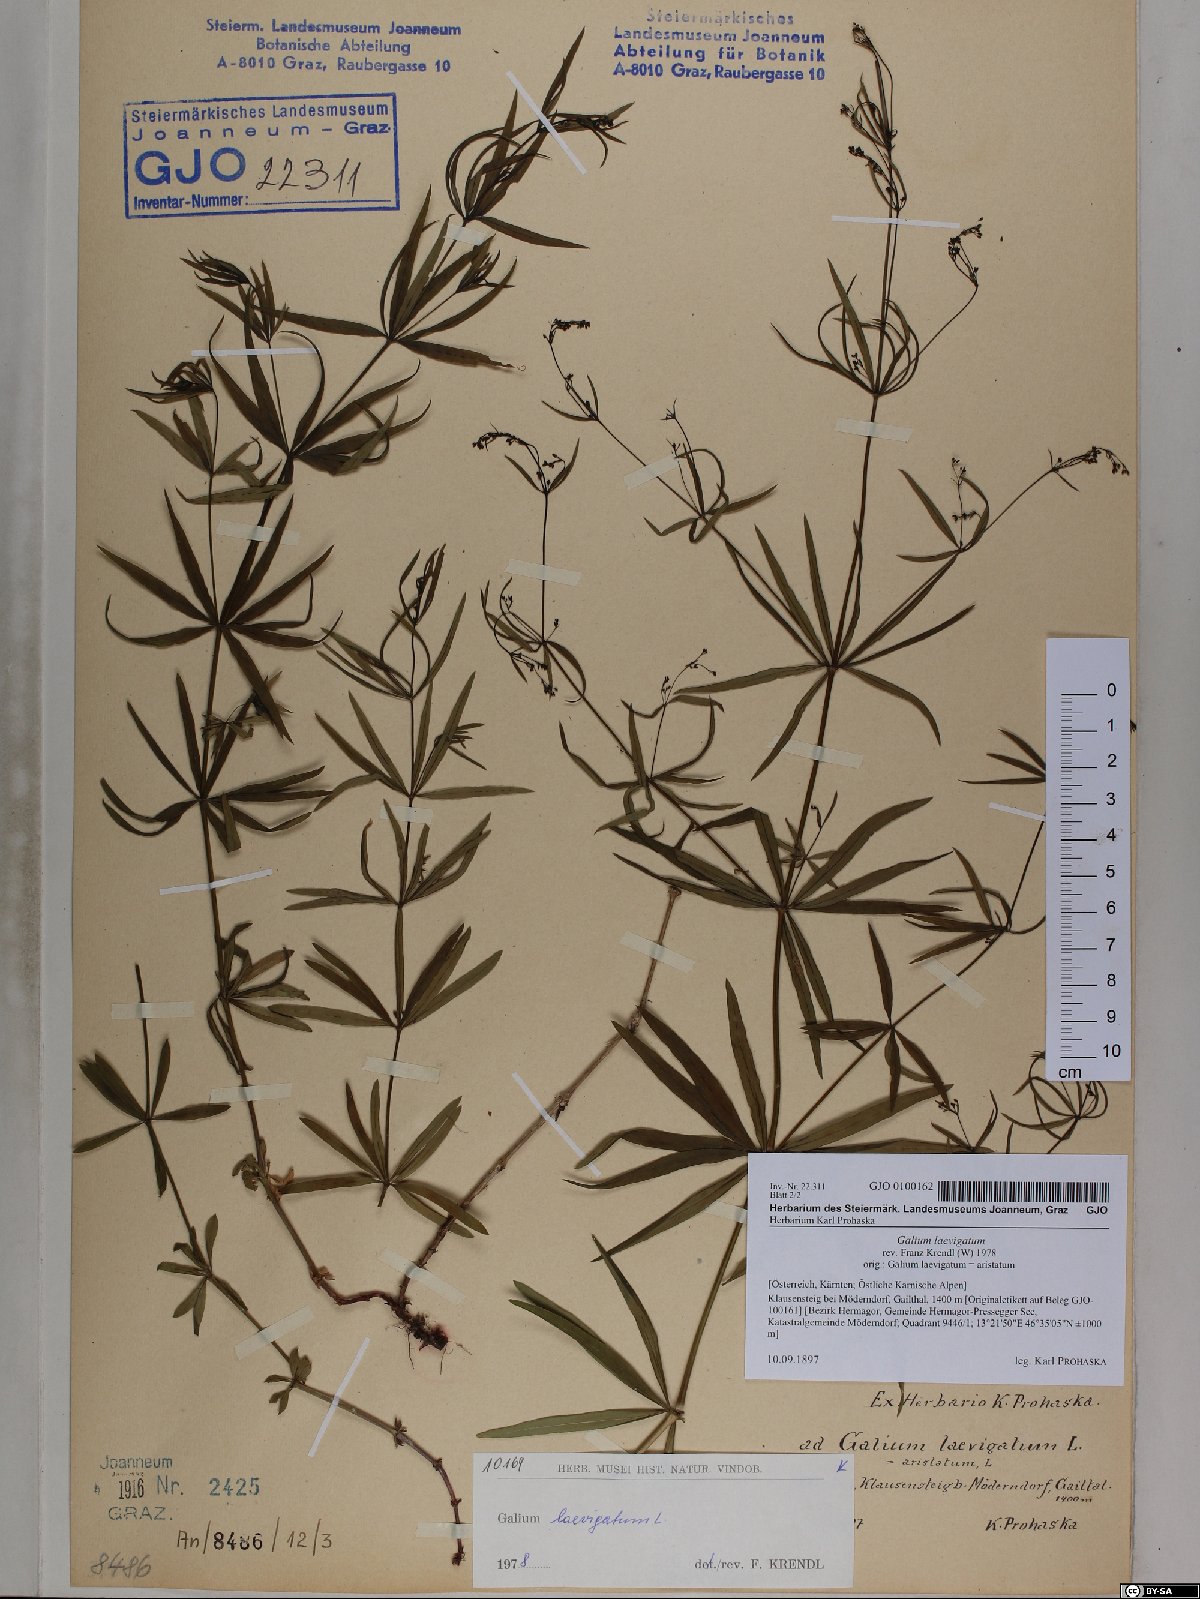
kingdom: Plantae
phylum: Tracheophyta
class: Magnoliopsida
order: Gentianales
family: Rubiaceae
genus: Galium
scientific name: Galium laevigatum
